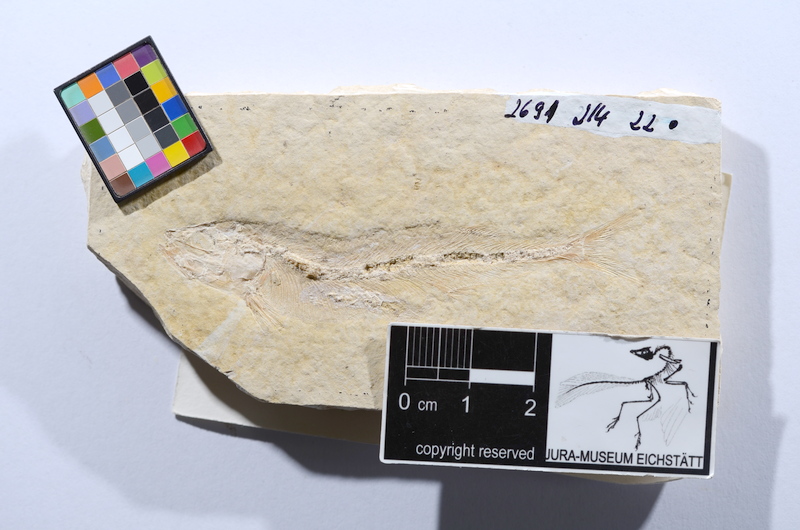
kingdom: Animalia
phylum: Chordata
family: Allothrissopidae
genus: Allothrissops
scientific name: Allothrissops salmoneus
